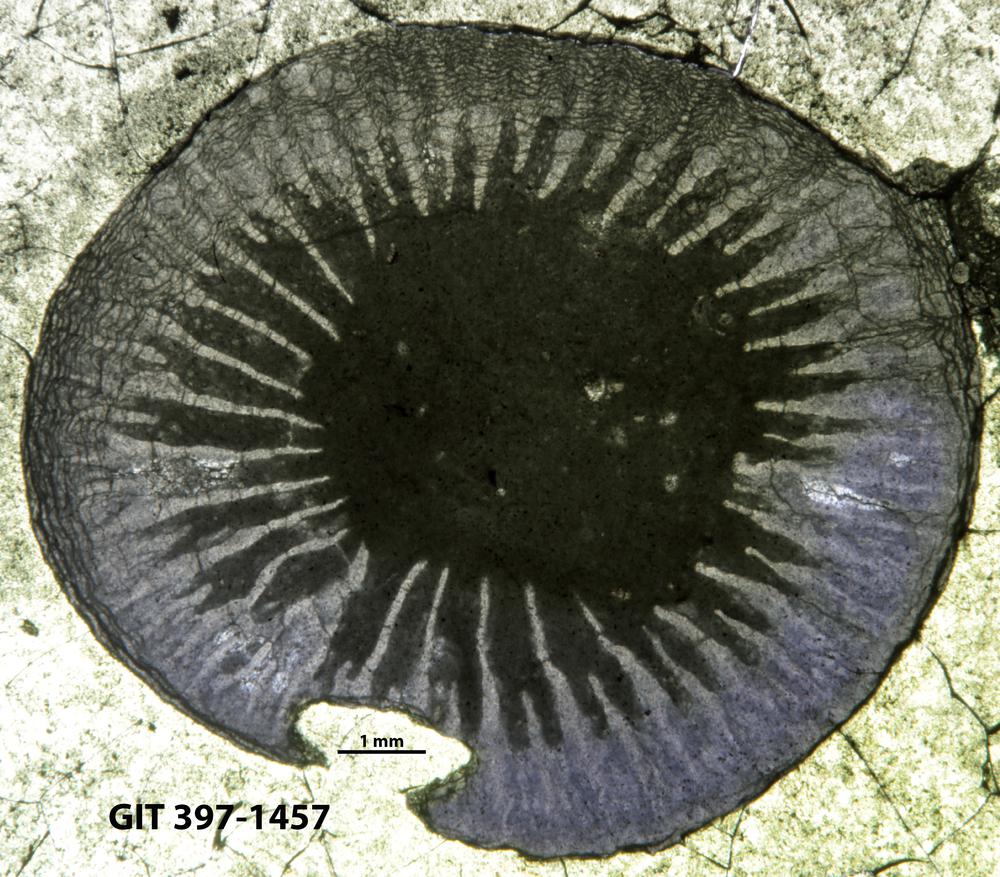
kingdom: Animalia
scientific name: Animalia
